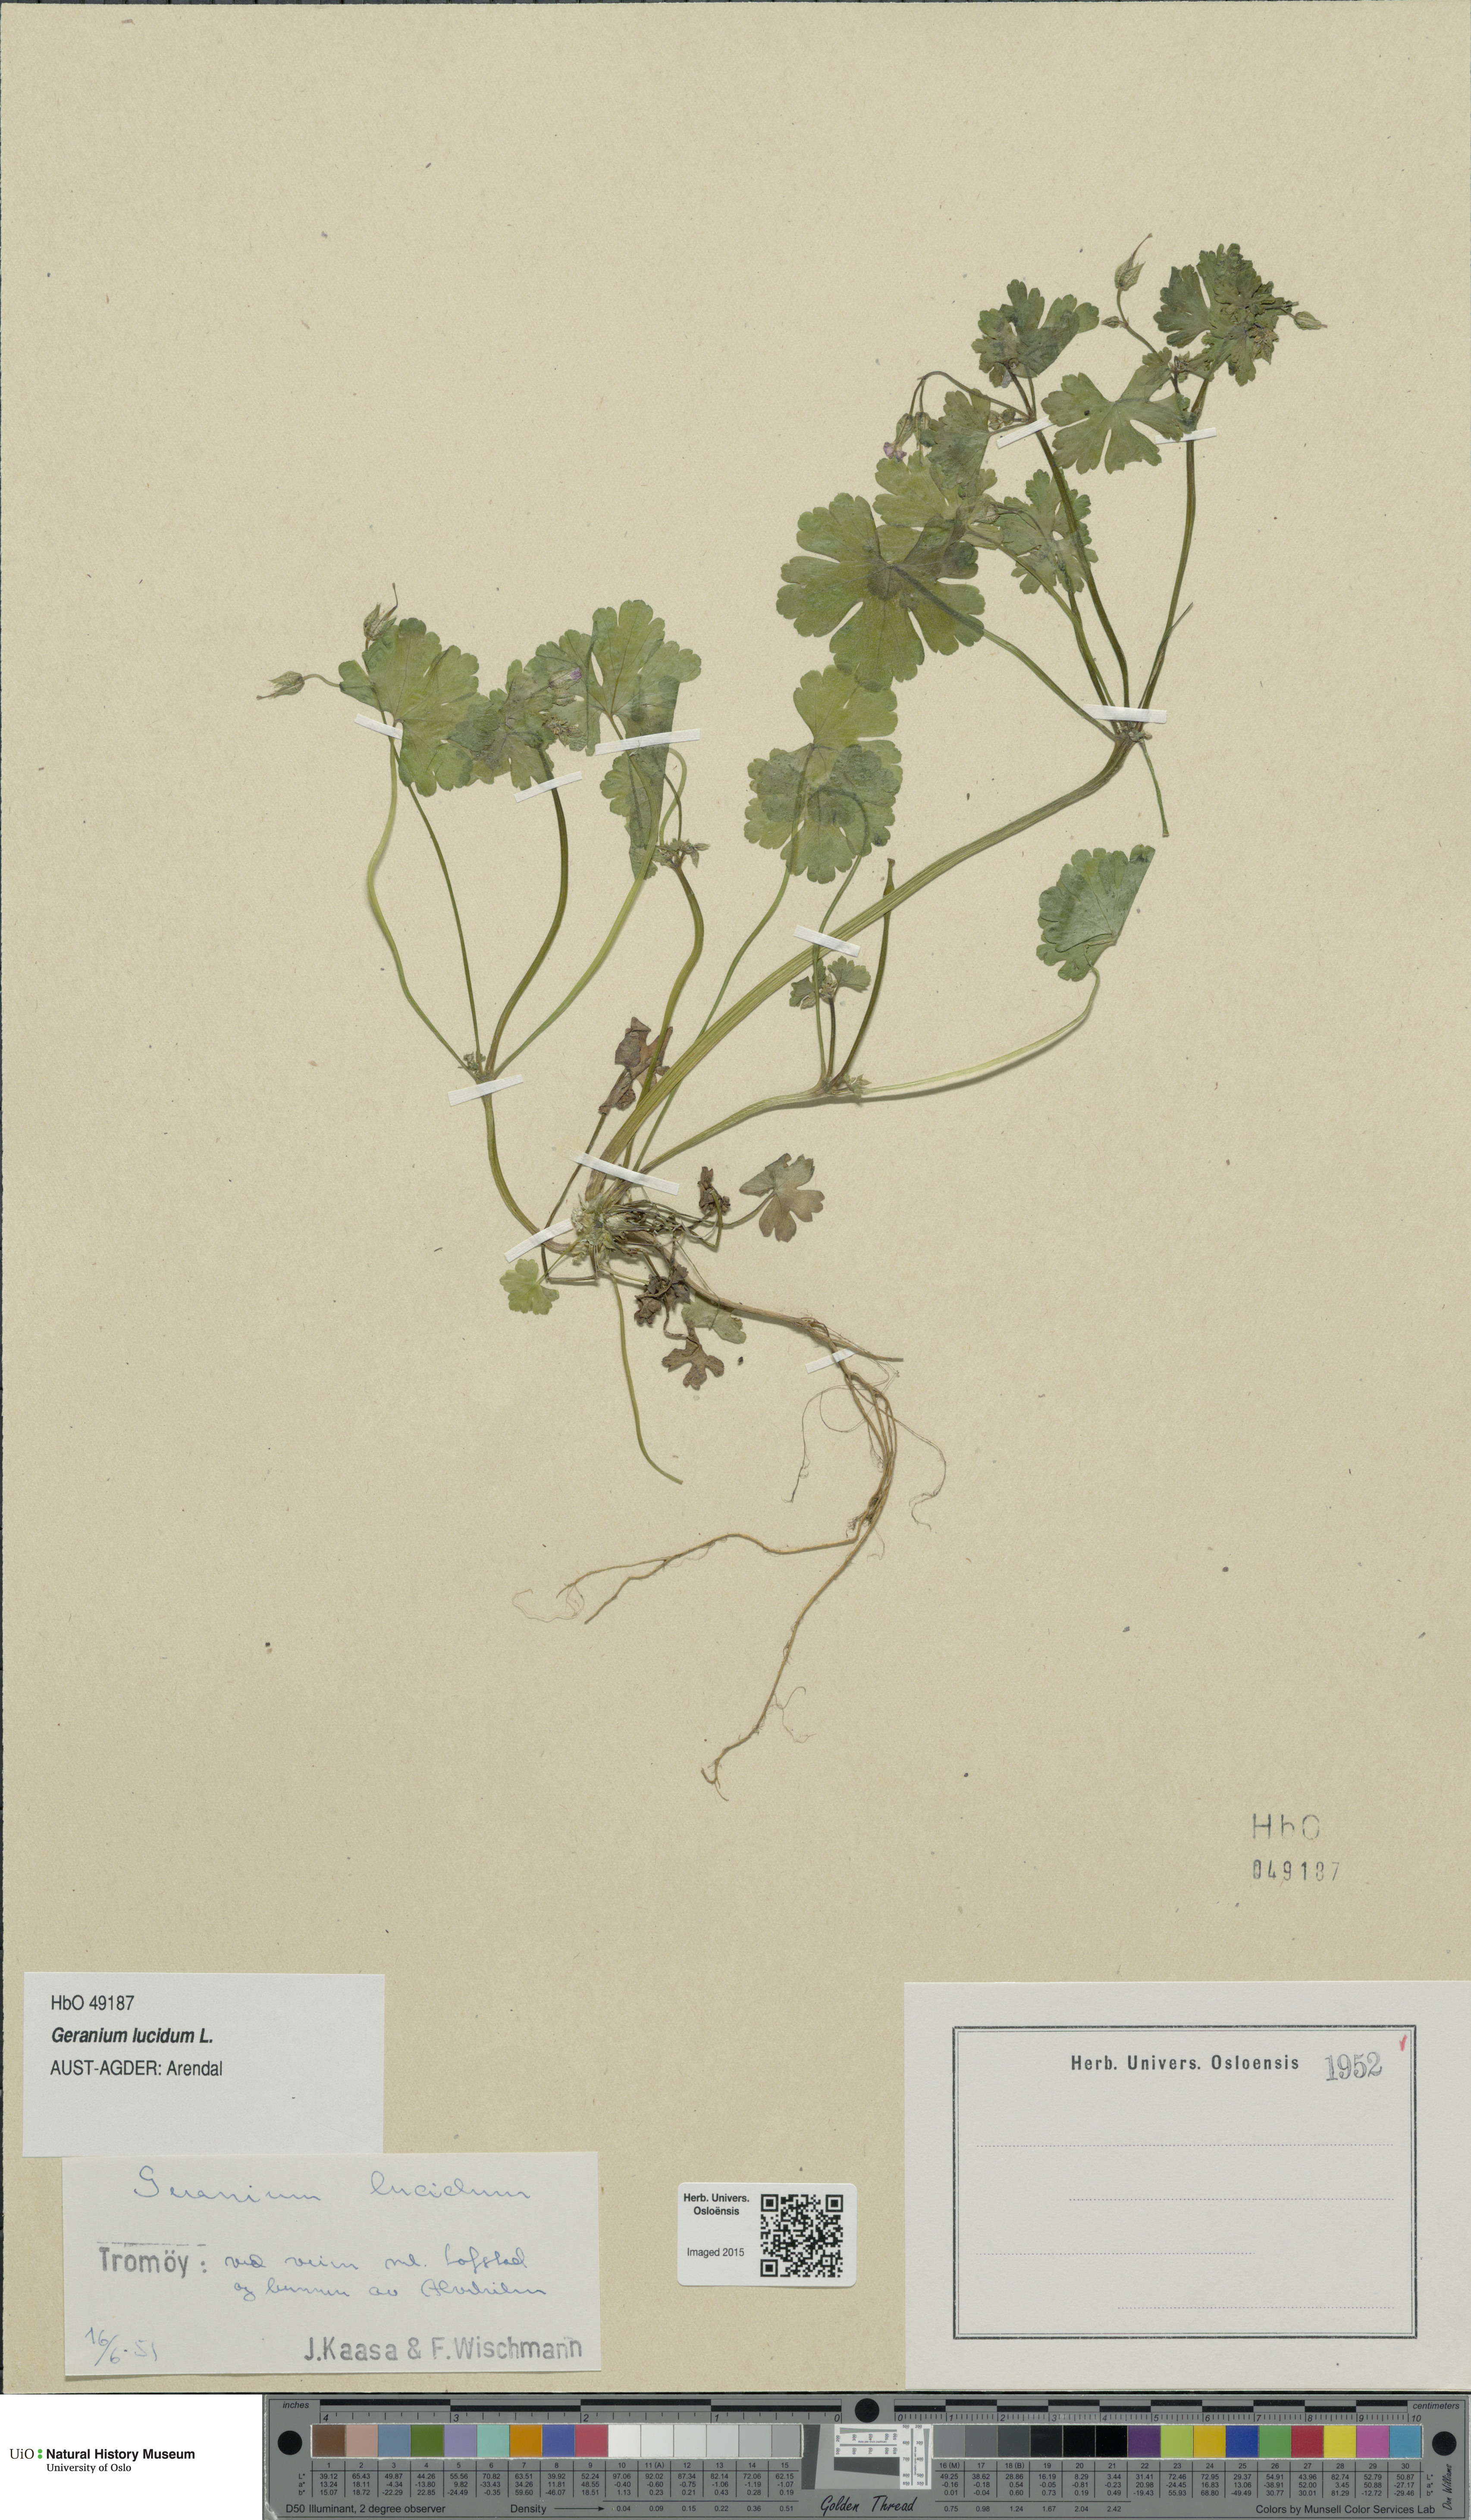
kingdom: Plantae
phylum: Tracheophyta
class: Magnoliopsida
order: Geraniales
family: Geraniaceae
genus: Geranium
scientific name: Geranium lucidum
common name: Shining crane's-bill
